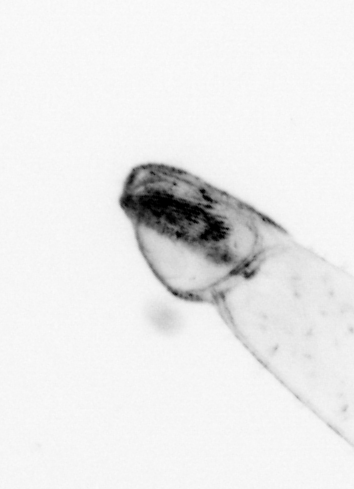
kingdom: Animalia
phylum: Chaetognatha
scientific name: Chaetognatha
